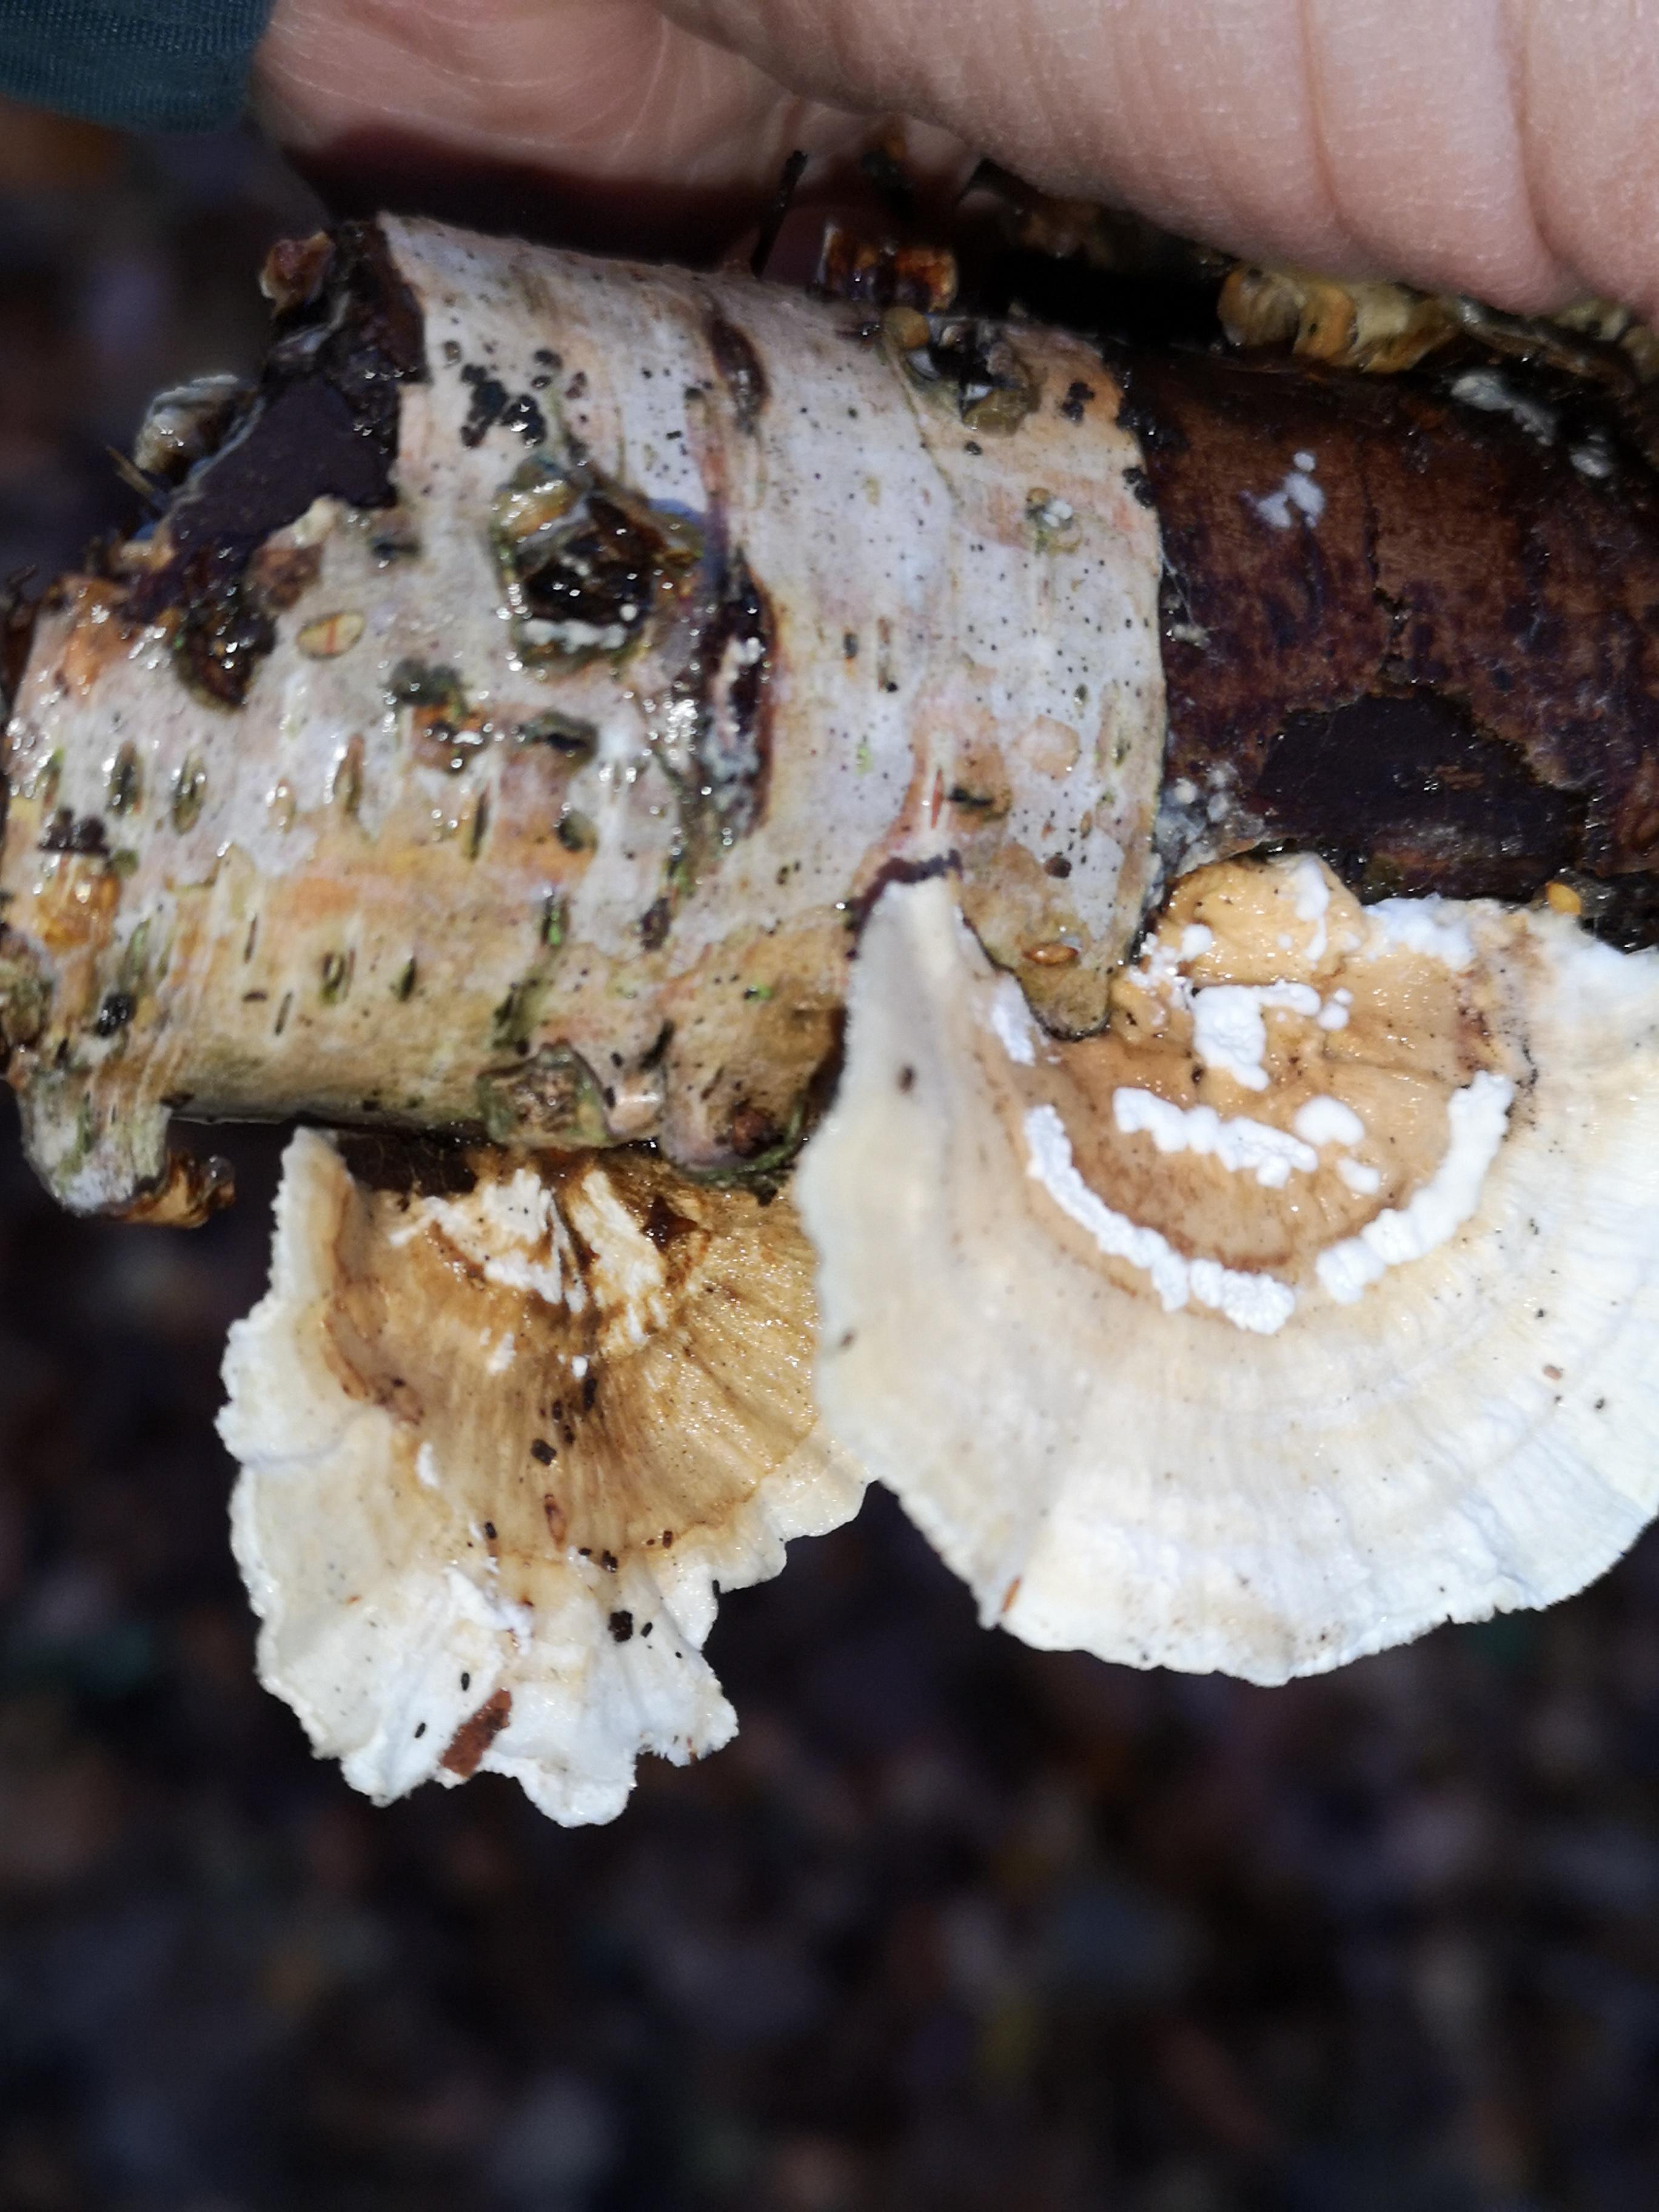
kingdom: Fungi
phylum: Basidiomycota
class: Agaricomycetes
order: Polyporales
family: Polyporaceae
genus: Trametes
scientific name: Trametes ochracea
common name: bæltet læderporesvamp
